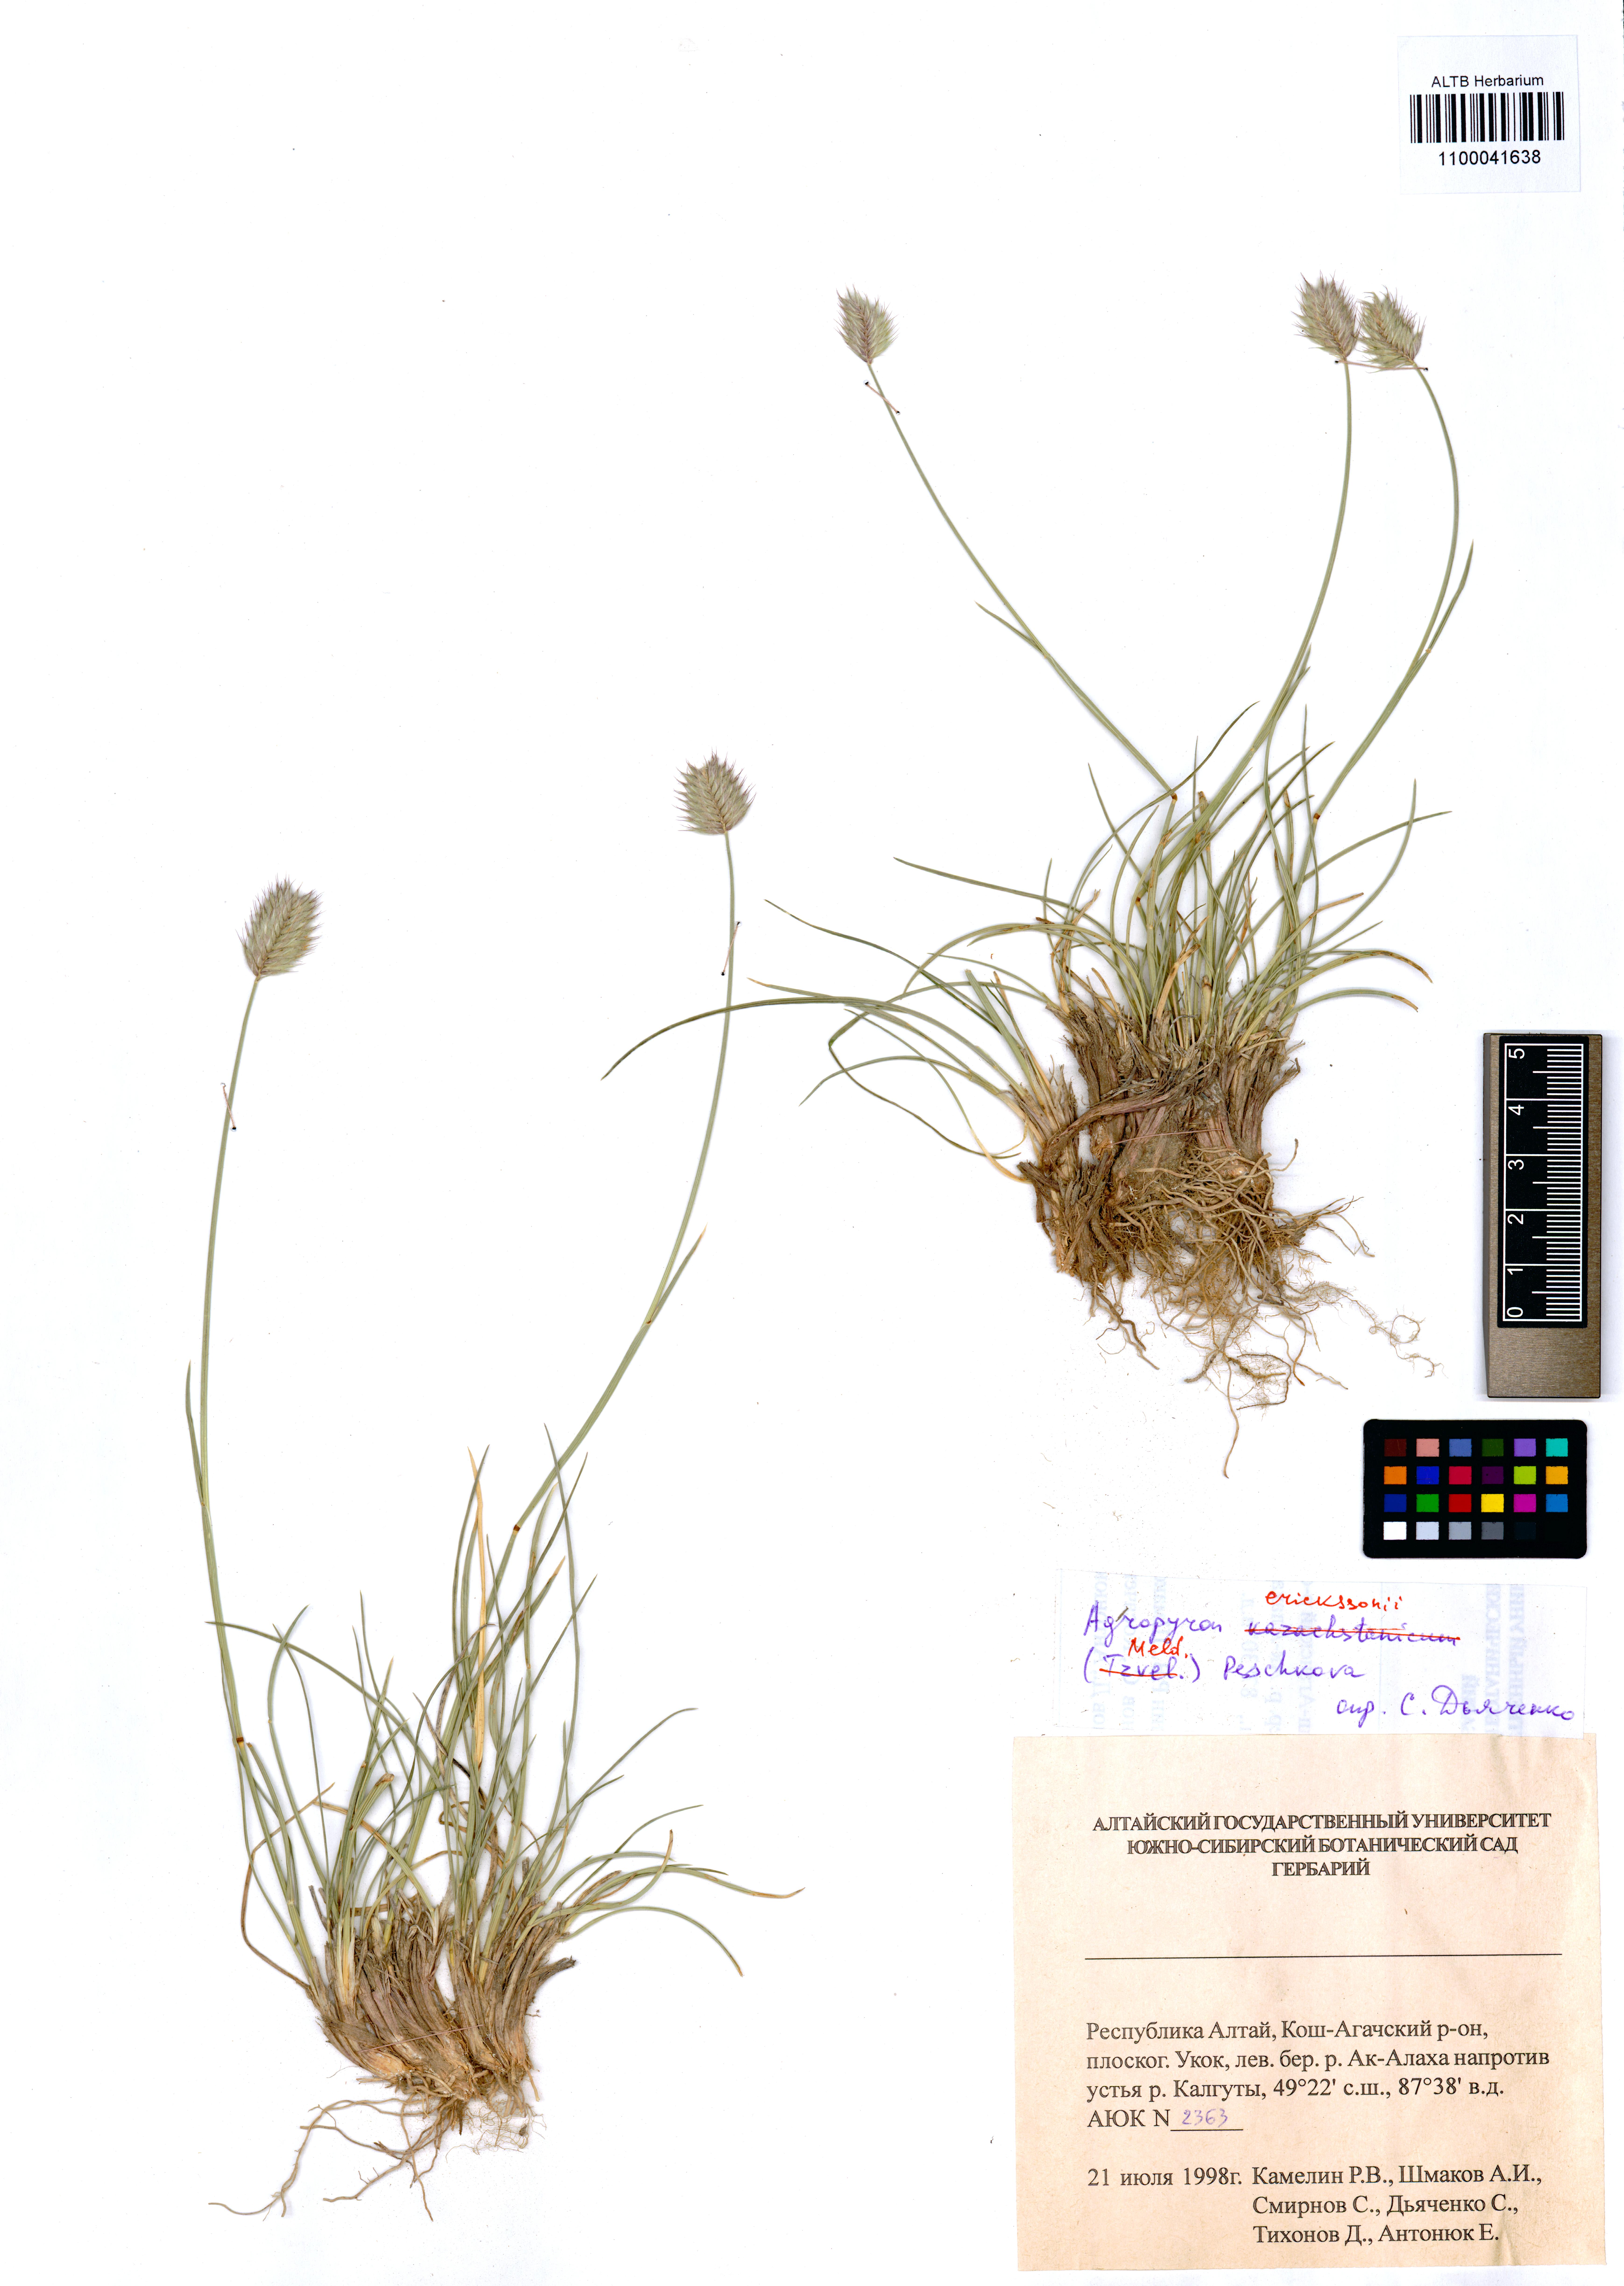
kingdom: Plantae
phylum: Tracheophyta
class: Liliopsida
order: Poales
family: Poaceae
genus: Agropyron
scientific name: Agropyron cristatum
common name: Crested wheatgrass
